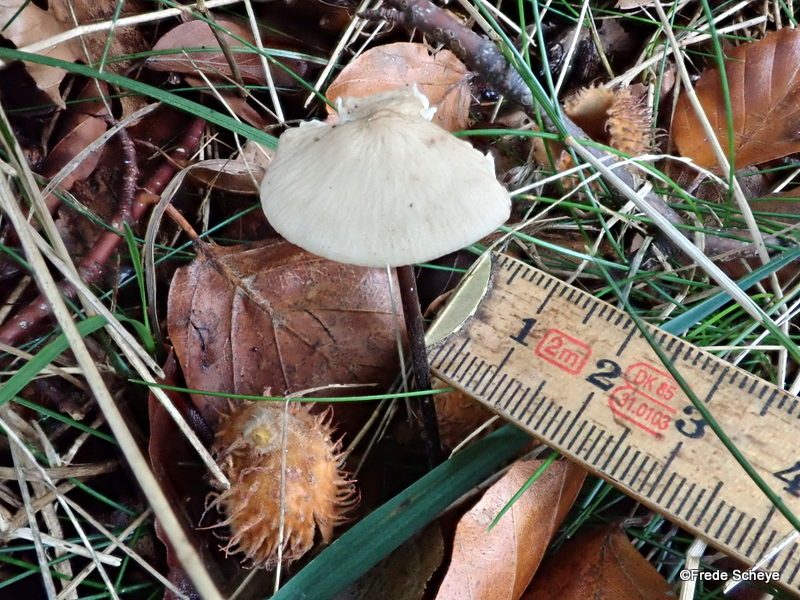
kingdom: Fungi
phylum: Basidiomycota
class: Agaricomycetes
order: Agaricales
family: Omphalotaceae
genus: Mycetinis
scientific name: Mycetinis alliaceus
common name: stor løghat
